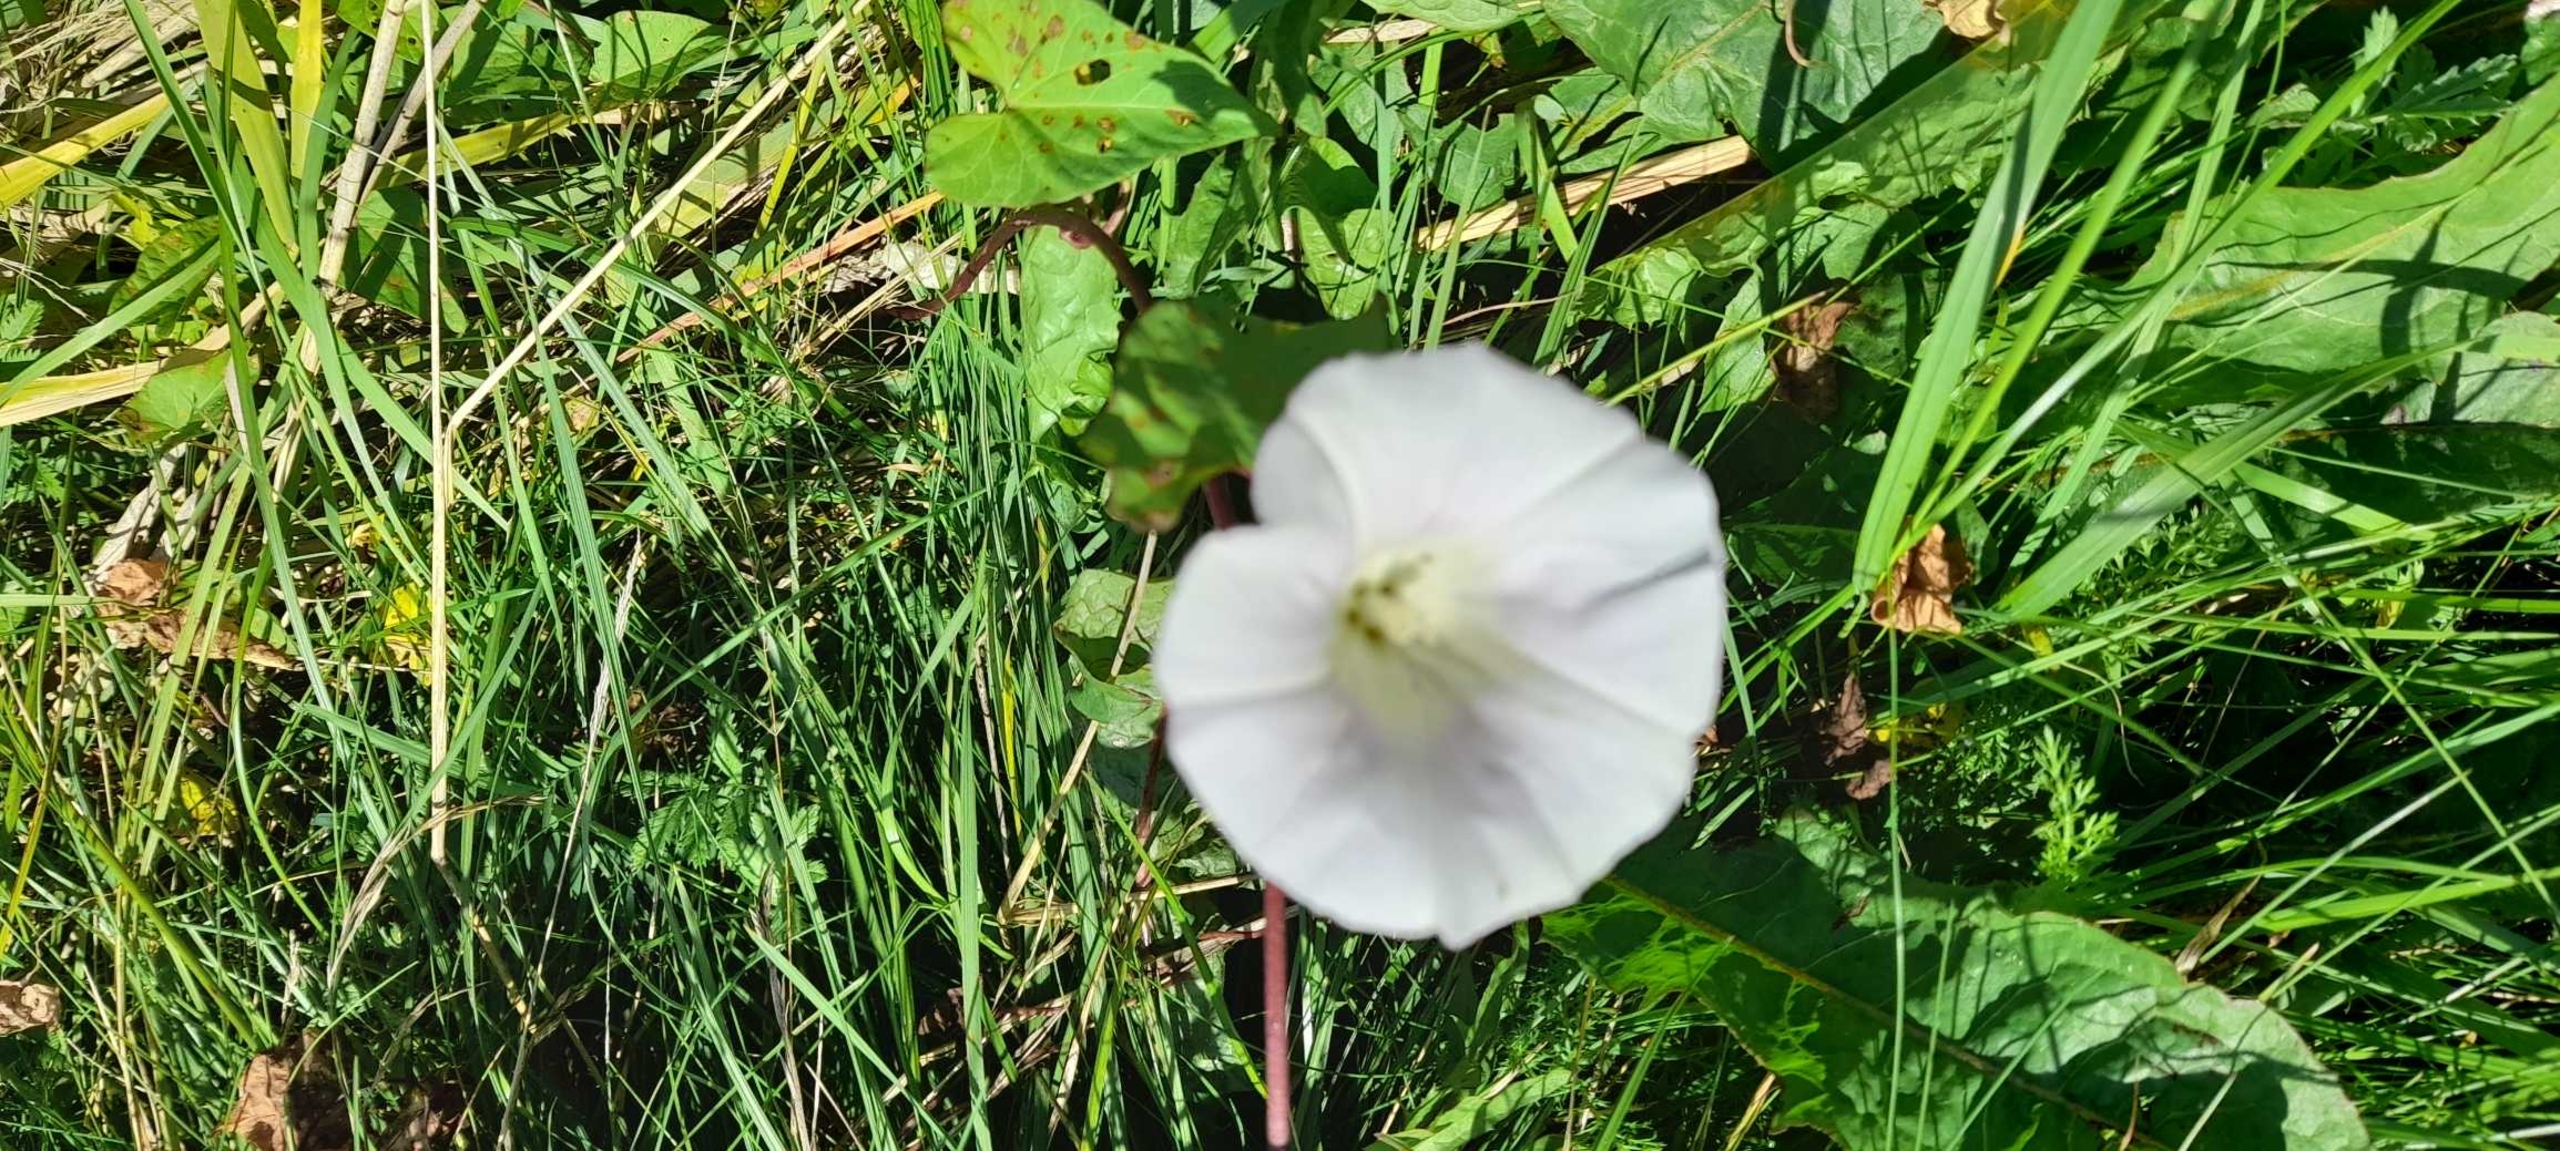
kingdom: Plantae
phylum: Tracheophyta
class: Magnoliopsida
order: Solanales
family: Convolvulaceae
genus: Calystegia
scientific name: Calystegia sepium
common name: Gærde-snerle
